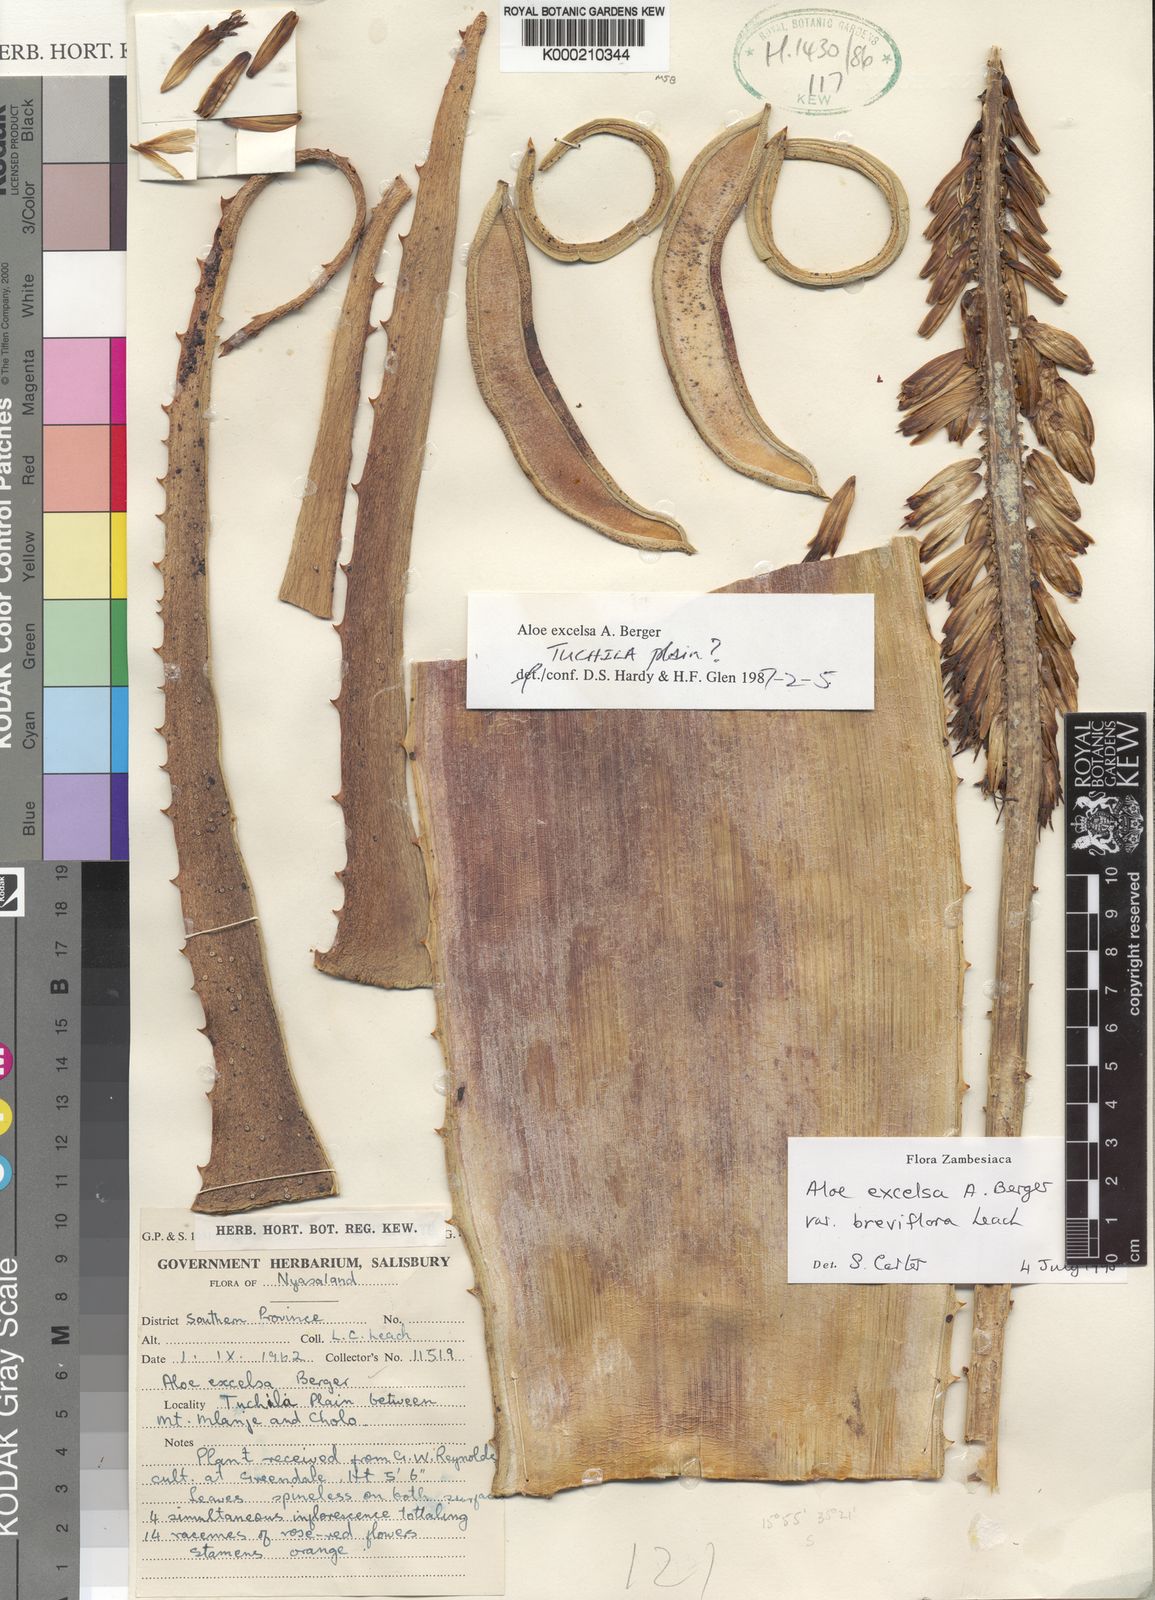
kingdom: Plantae
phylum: Tracheophyta
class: Liliopsida
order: Asparagales
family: Asphodelaceae
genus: Aloe
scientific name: Aloe excelsa
